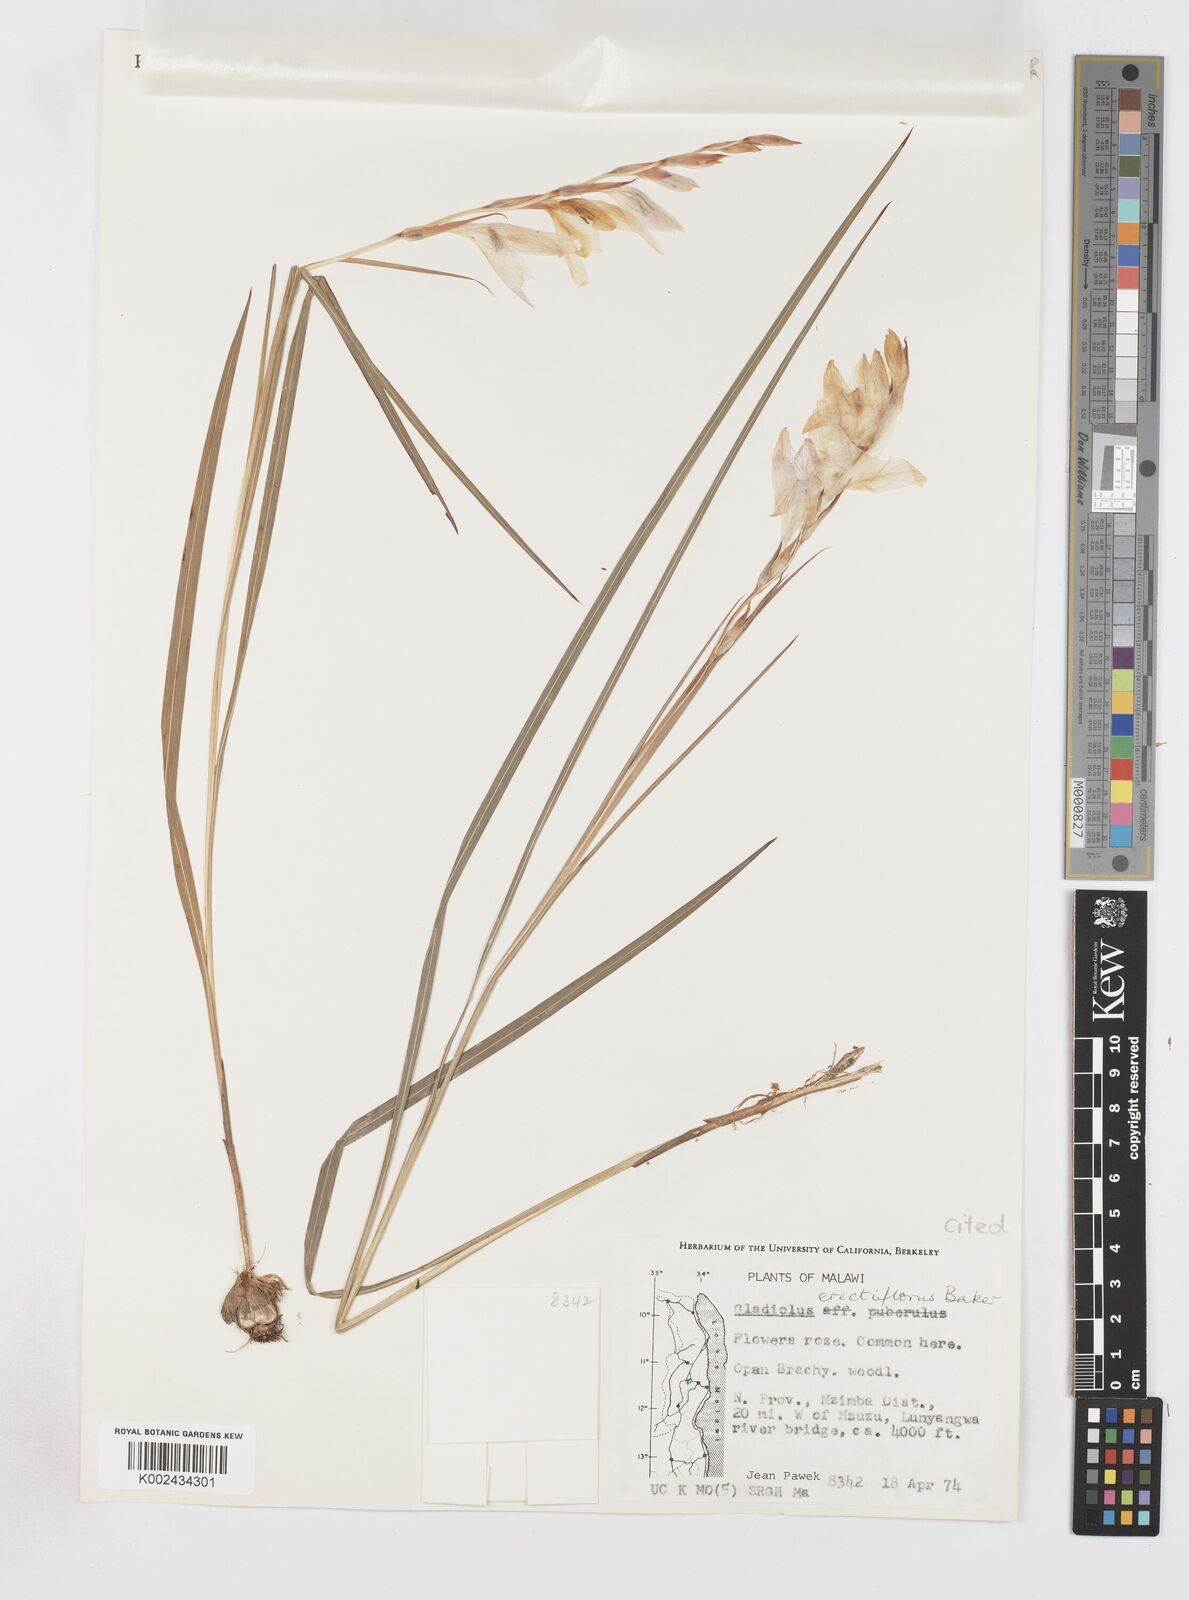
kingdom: Plantae
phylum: Tracheophyta
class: Liliopsida
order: Asparagales
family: Iridaceae
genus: Gladiolus
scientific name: Gladiolus erectiflorus
